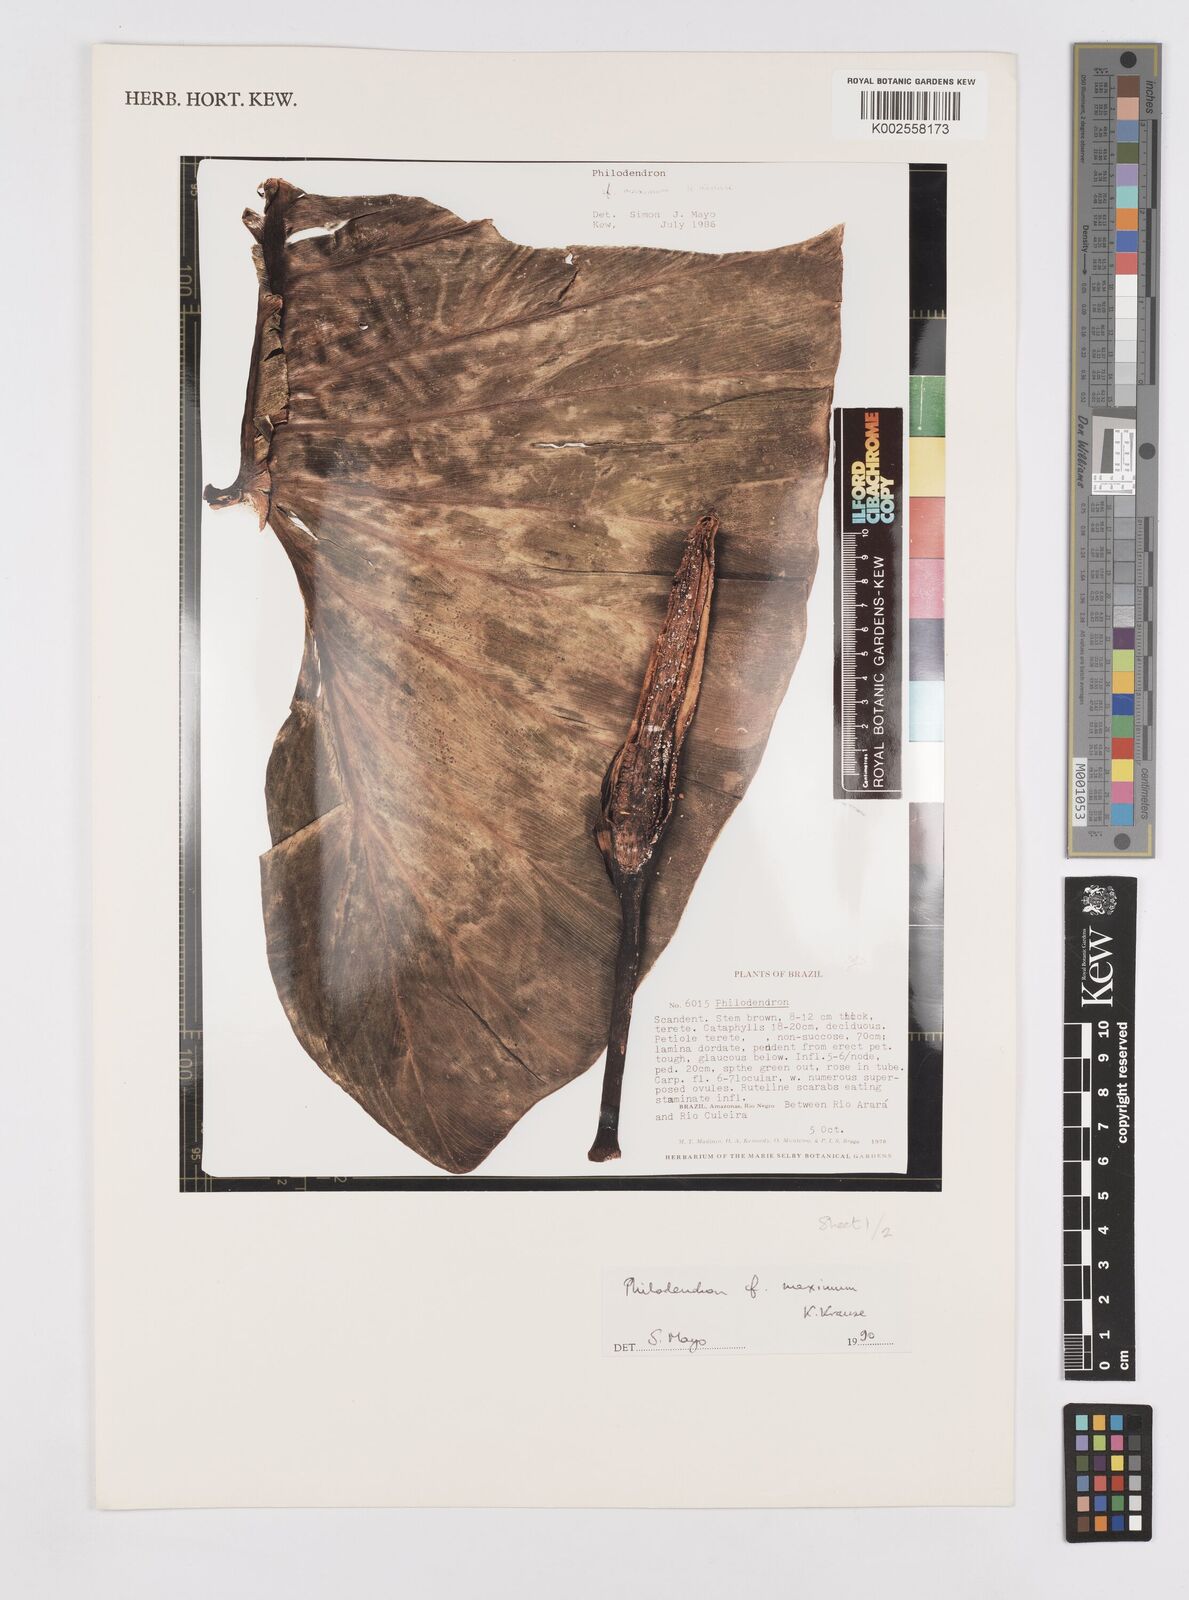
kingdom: Plantae
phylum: Tracheophyta
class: Liliopsida
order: Alismatales
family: Araceae
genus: Philodendron
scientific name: Philodendron maximum
